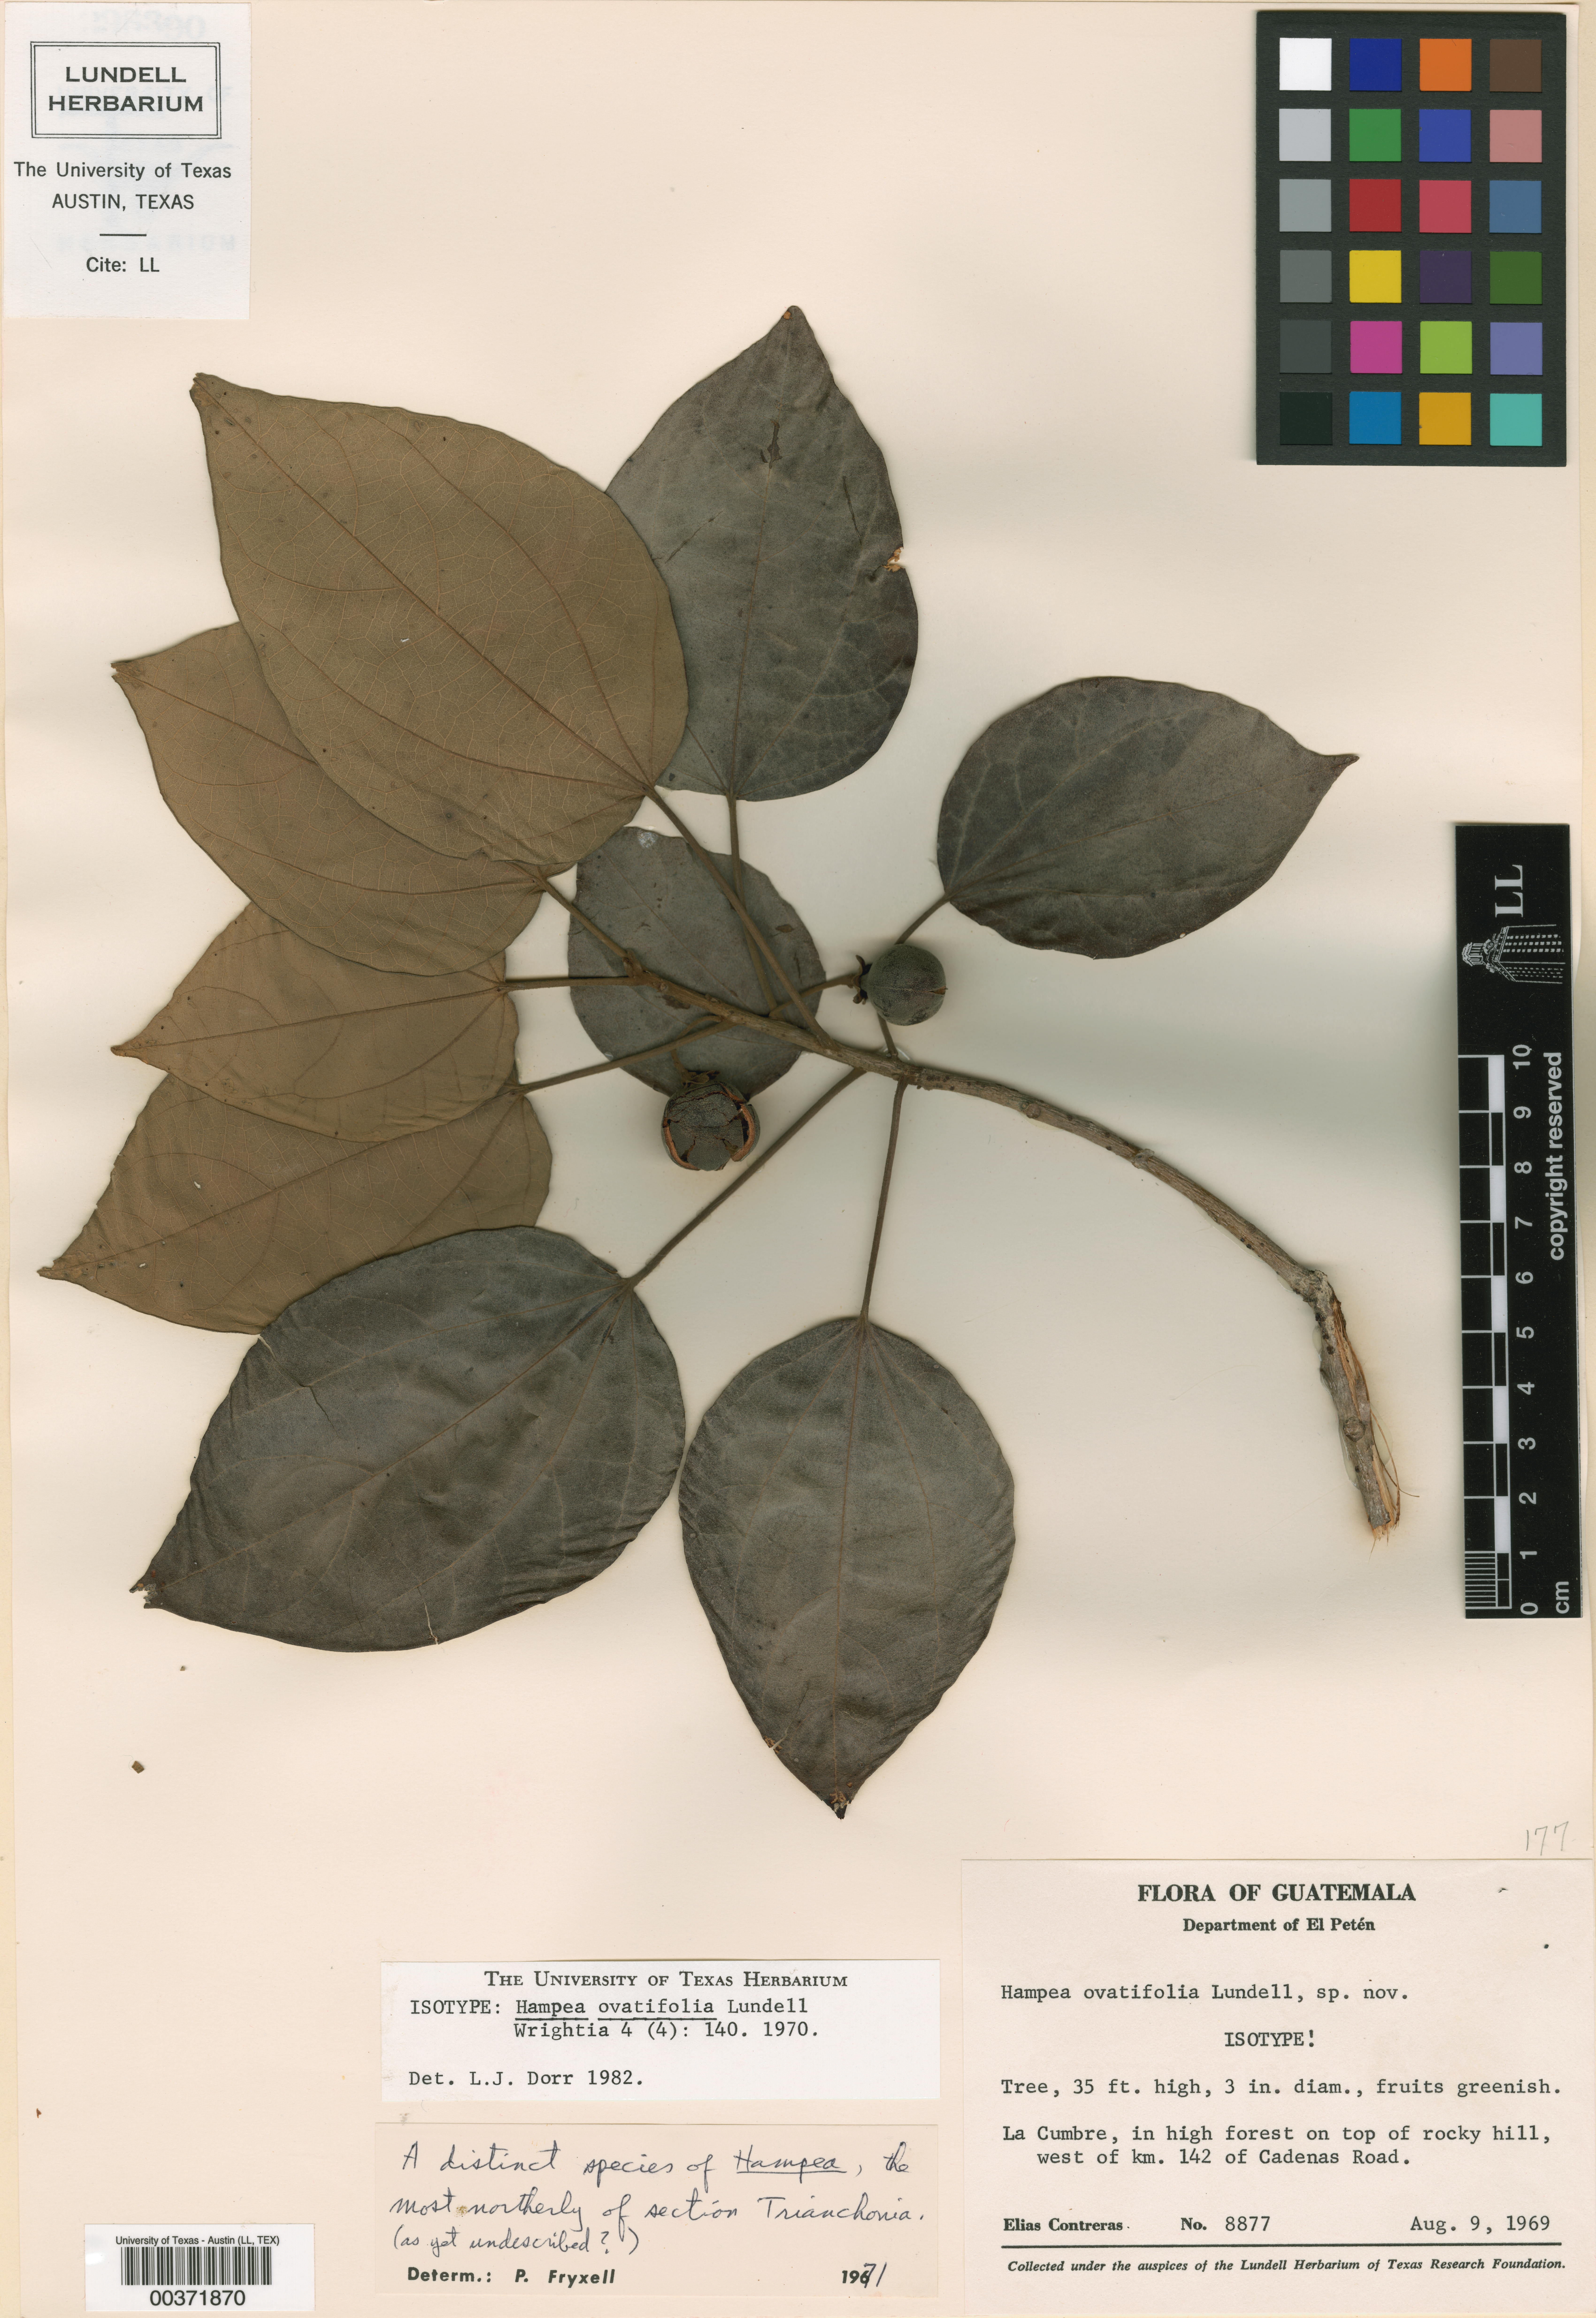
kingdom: Plantae
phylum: Tracheophyta
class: Magnoliopsida
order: Malvales
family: Malvaceae
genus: Hampea
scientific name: Hampea ovatifolia
